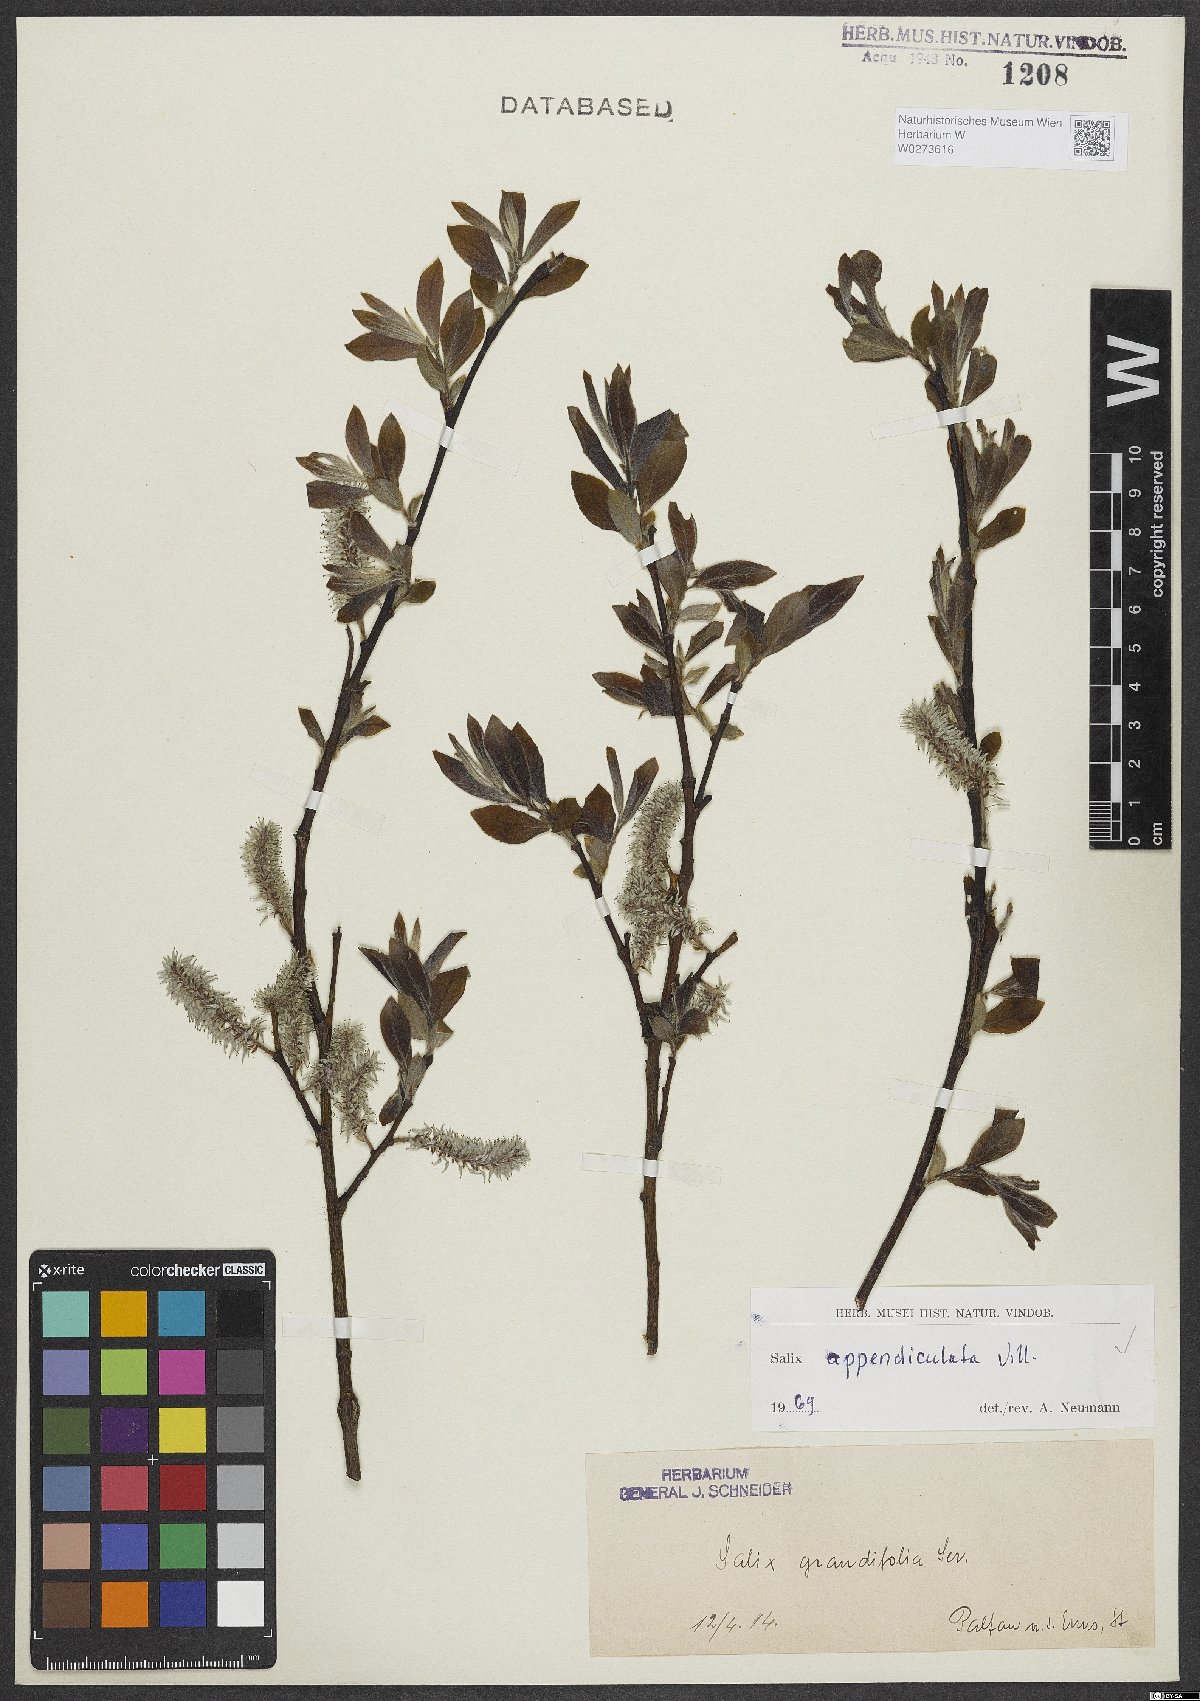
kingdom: Plantae
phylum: Tracheophyta
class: Magnoliopsida
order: Malpighiales
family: Salicaceae
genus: Salix
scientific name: Salix appendiculata
